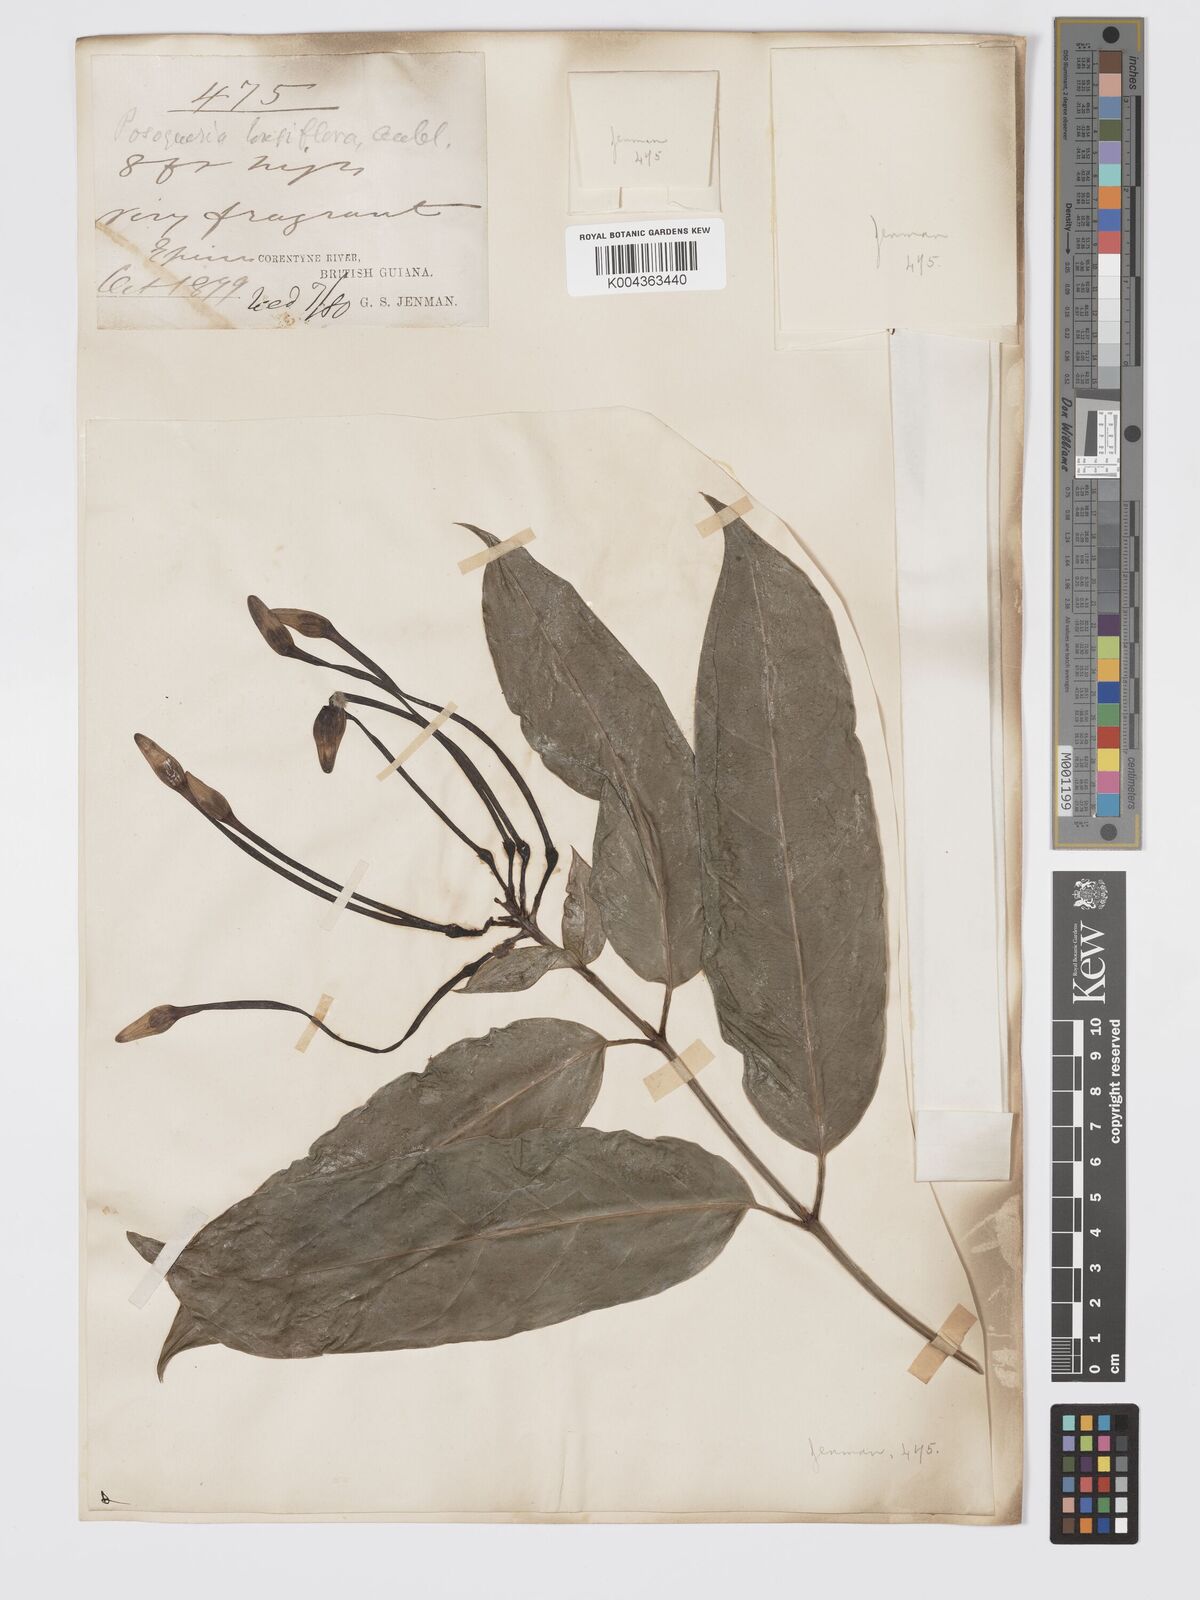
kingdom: Plantae
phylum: Tracheophyta
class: Magnoliopsida
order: Gentianales
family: Rubiaceae
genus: Posoqueria
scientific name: Posoqueria
